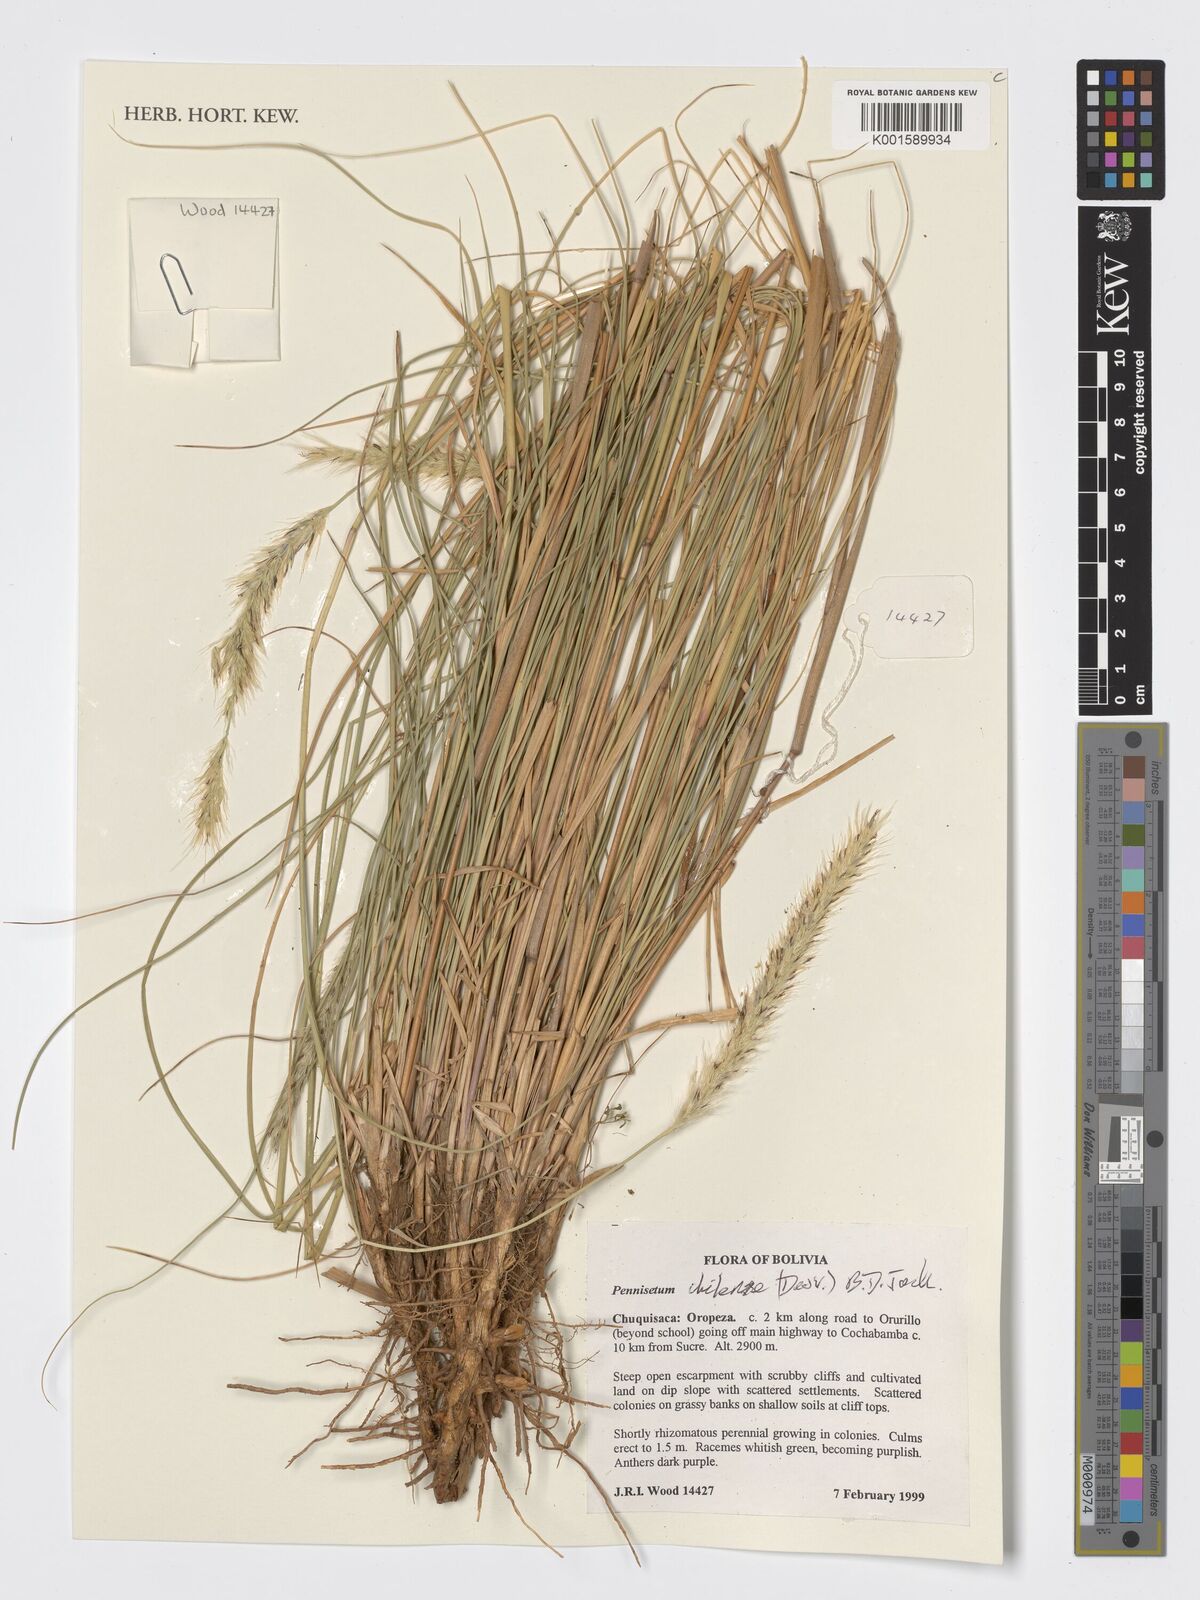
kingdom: Plantae
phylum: Tracheophyta
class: Liliopsida
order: Poales
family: Poaceae
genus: Cenchrus
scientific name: Cenchrus chilensis
